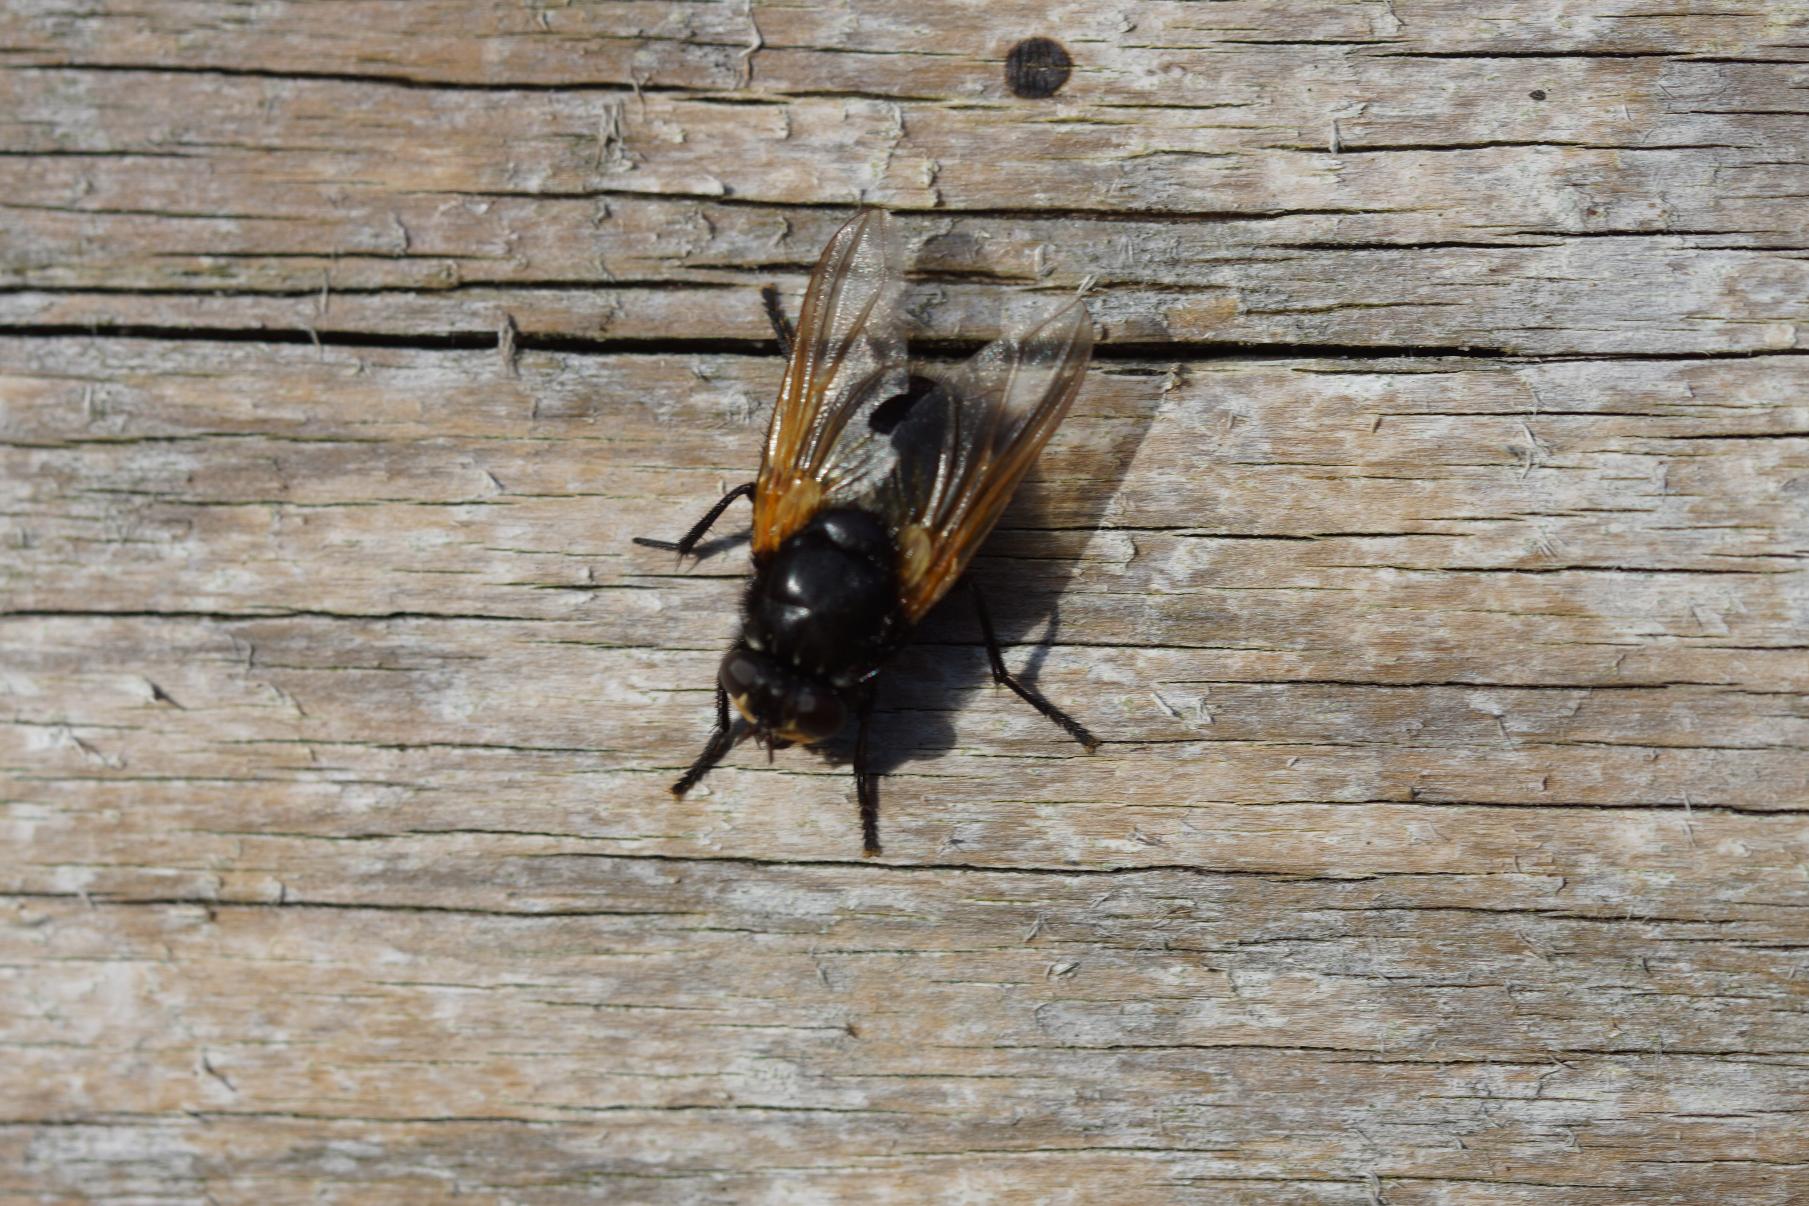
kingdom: Animalia
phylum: Arthropoda
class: Insecta
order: Diptera
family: Muscidae
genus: Mesembrina
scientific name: Mesembrina meridiana
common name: Gulvinget flue
